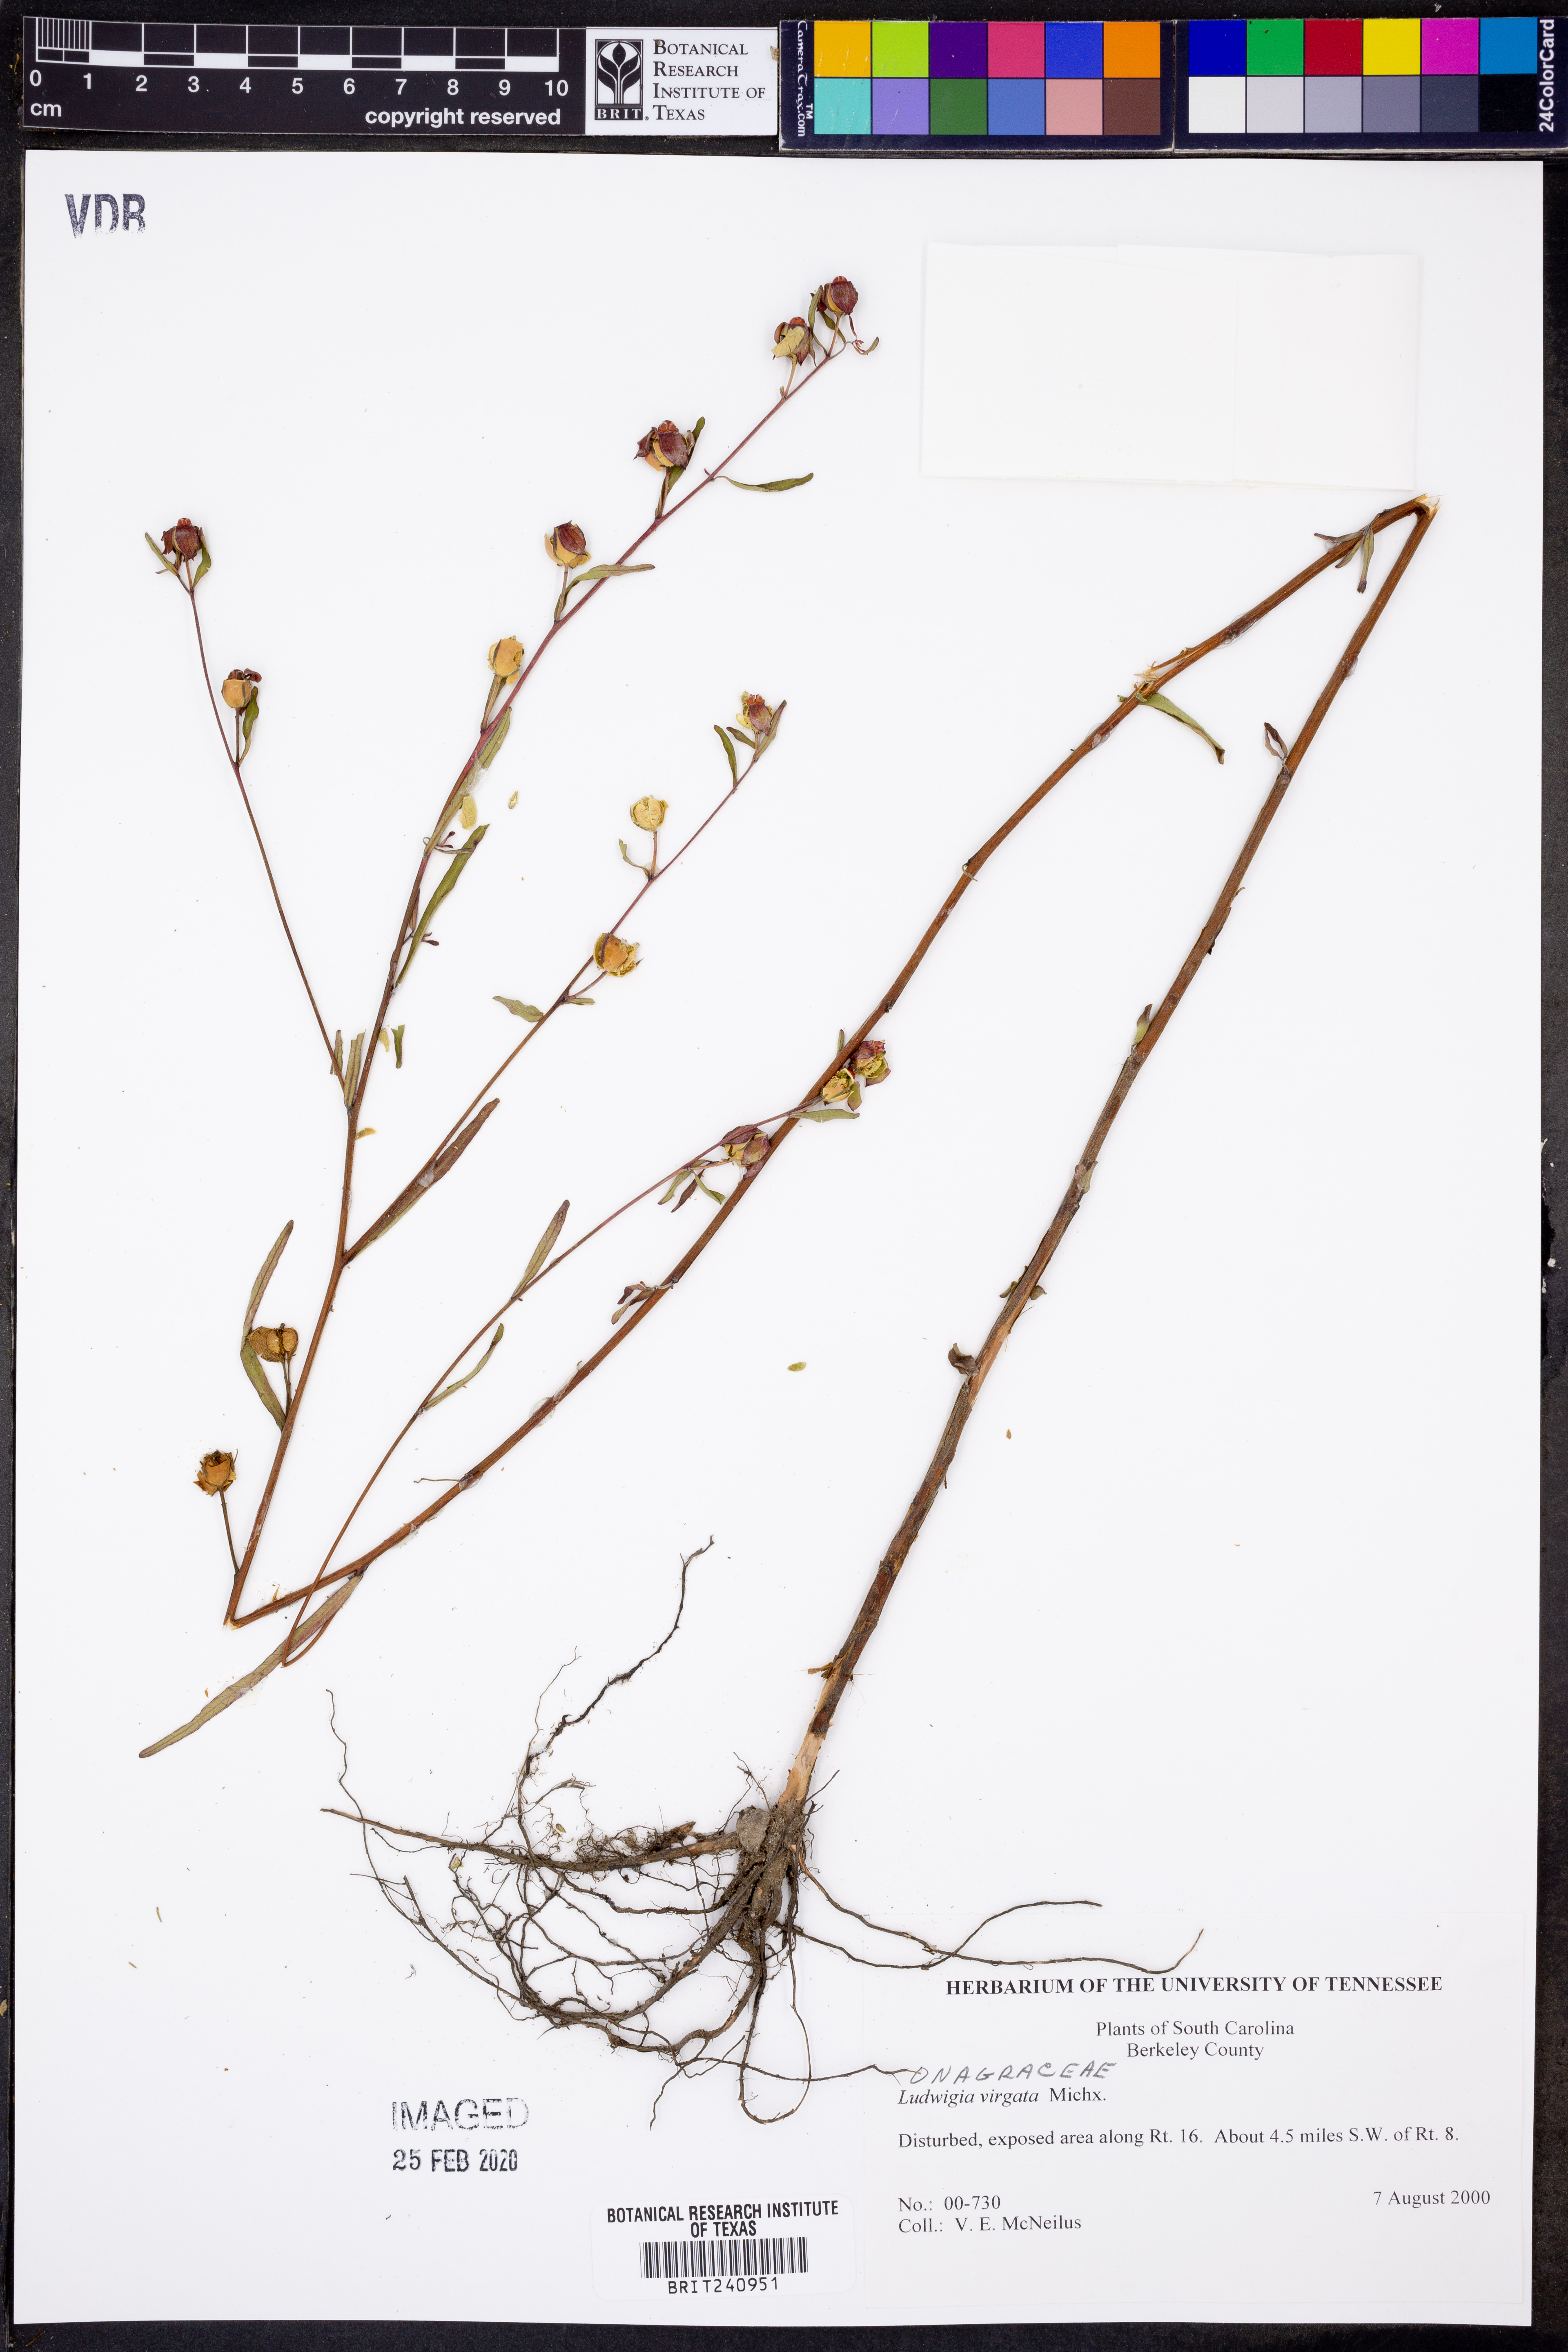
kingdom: Plantae
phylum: Tracheophyta
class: Magnoliopsida
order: Myrtales
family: Onagraceae
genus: Ludwigia
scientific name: Ludwigia virgata
